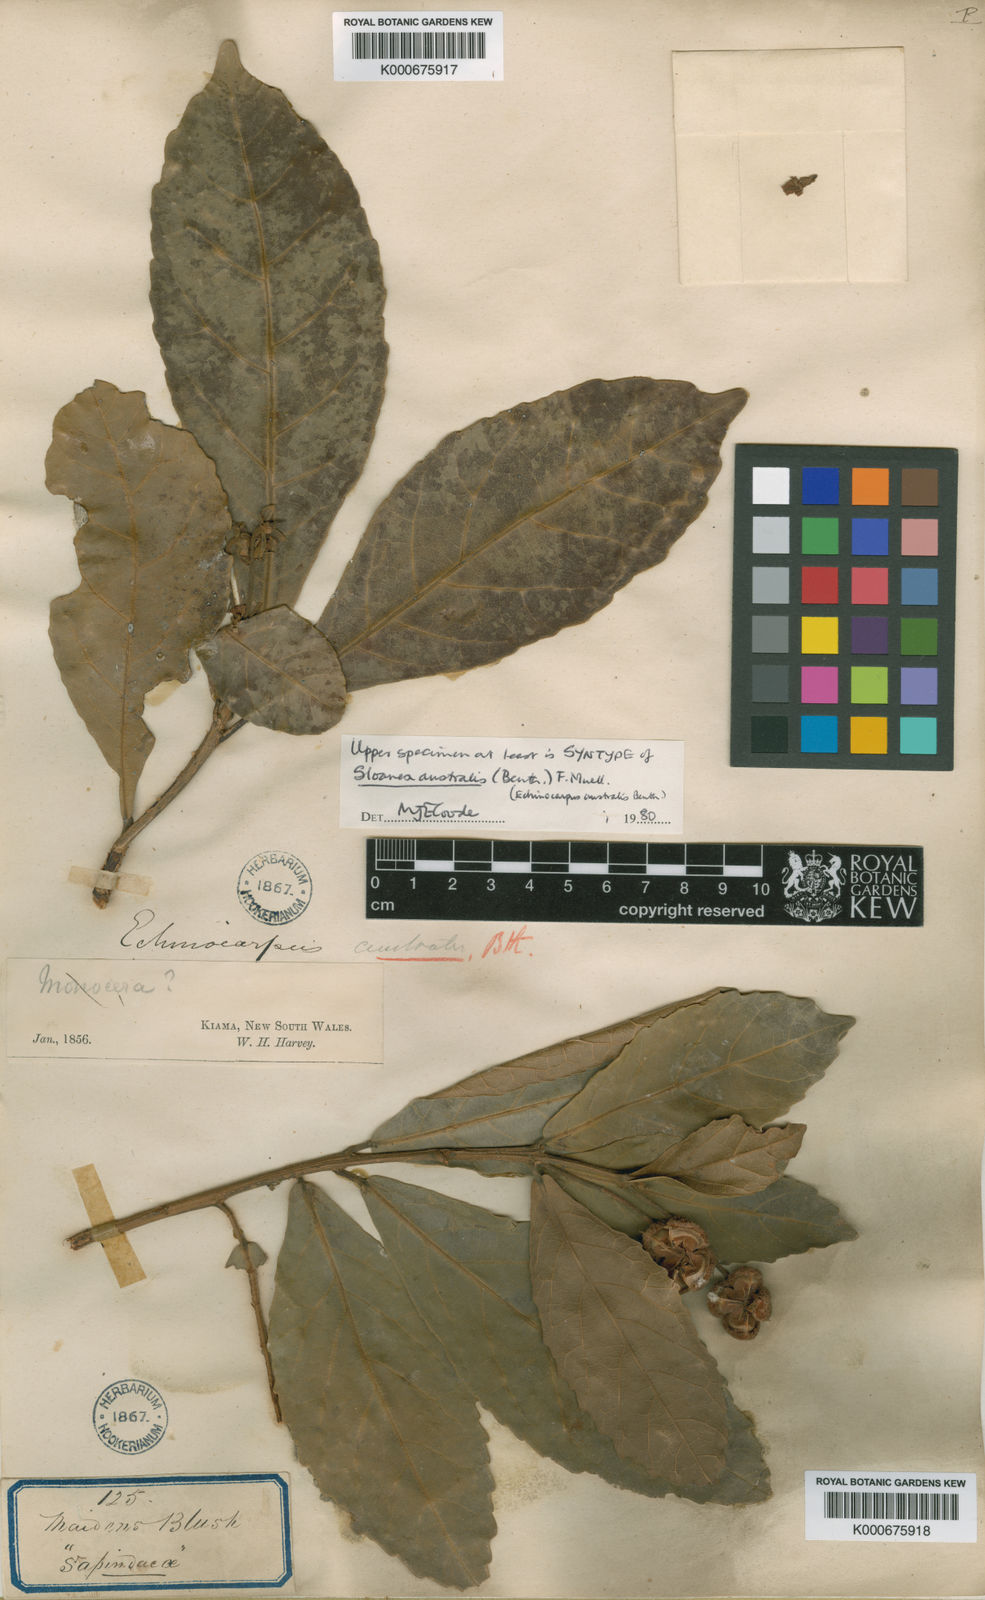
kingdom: Plantae
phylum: Tracheophyta
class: Magnoliopsida
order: Oxalidales
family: Elaeocarpaceae
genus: Sloanea
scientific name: Sloanea australis
